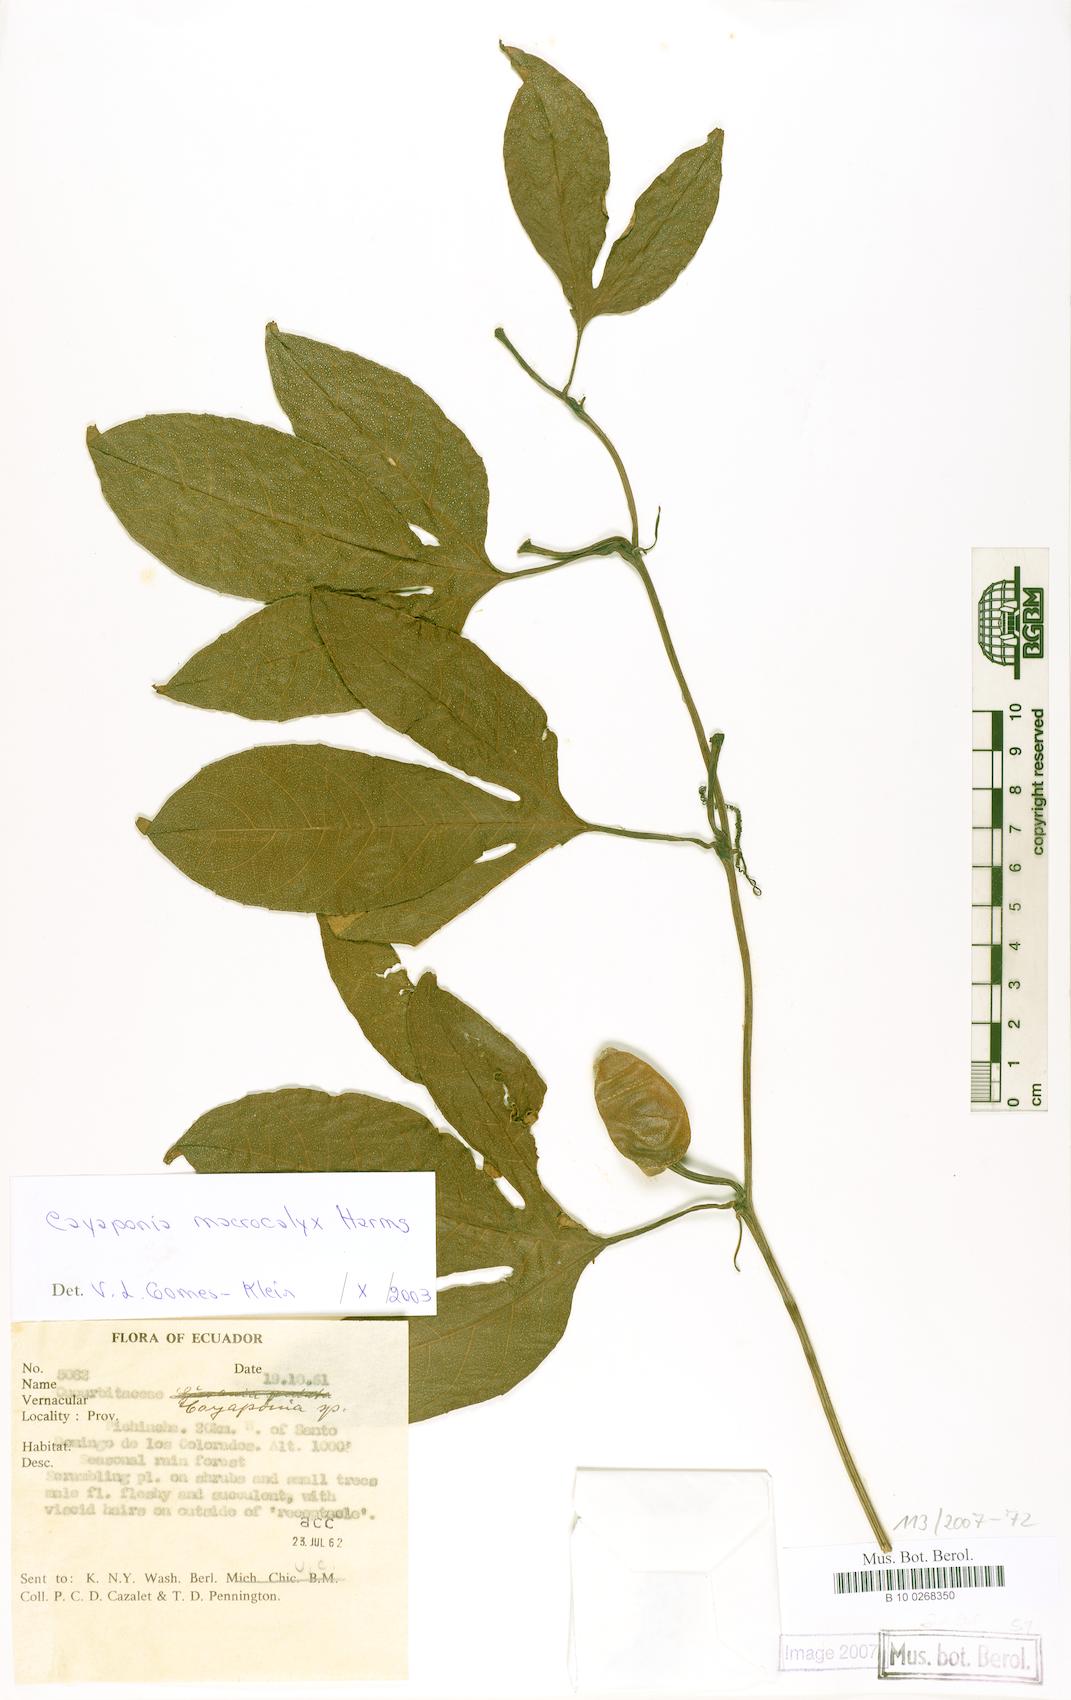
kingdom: Plantae
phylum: Tracheophyta
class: Magnoliopsida
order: Cucurbitales
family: Cucurbitaceae
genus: Cayaponia
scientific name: Cayaponia macrocalyx
